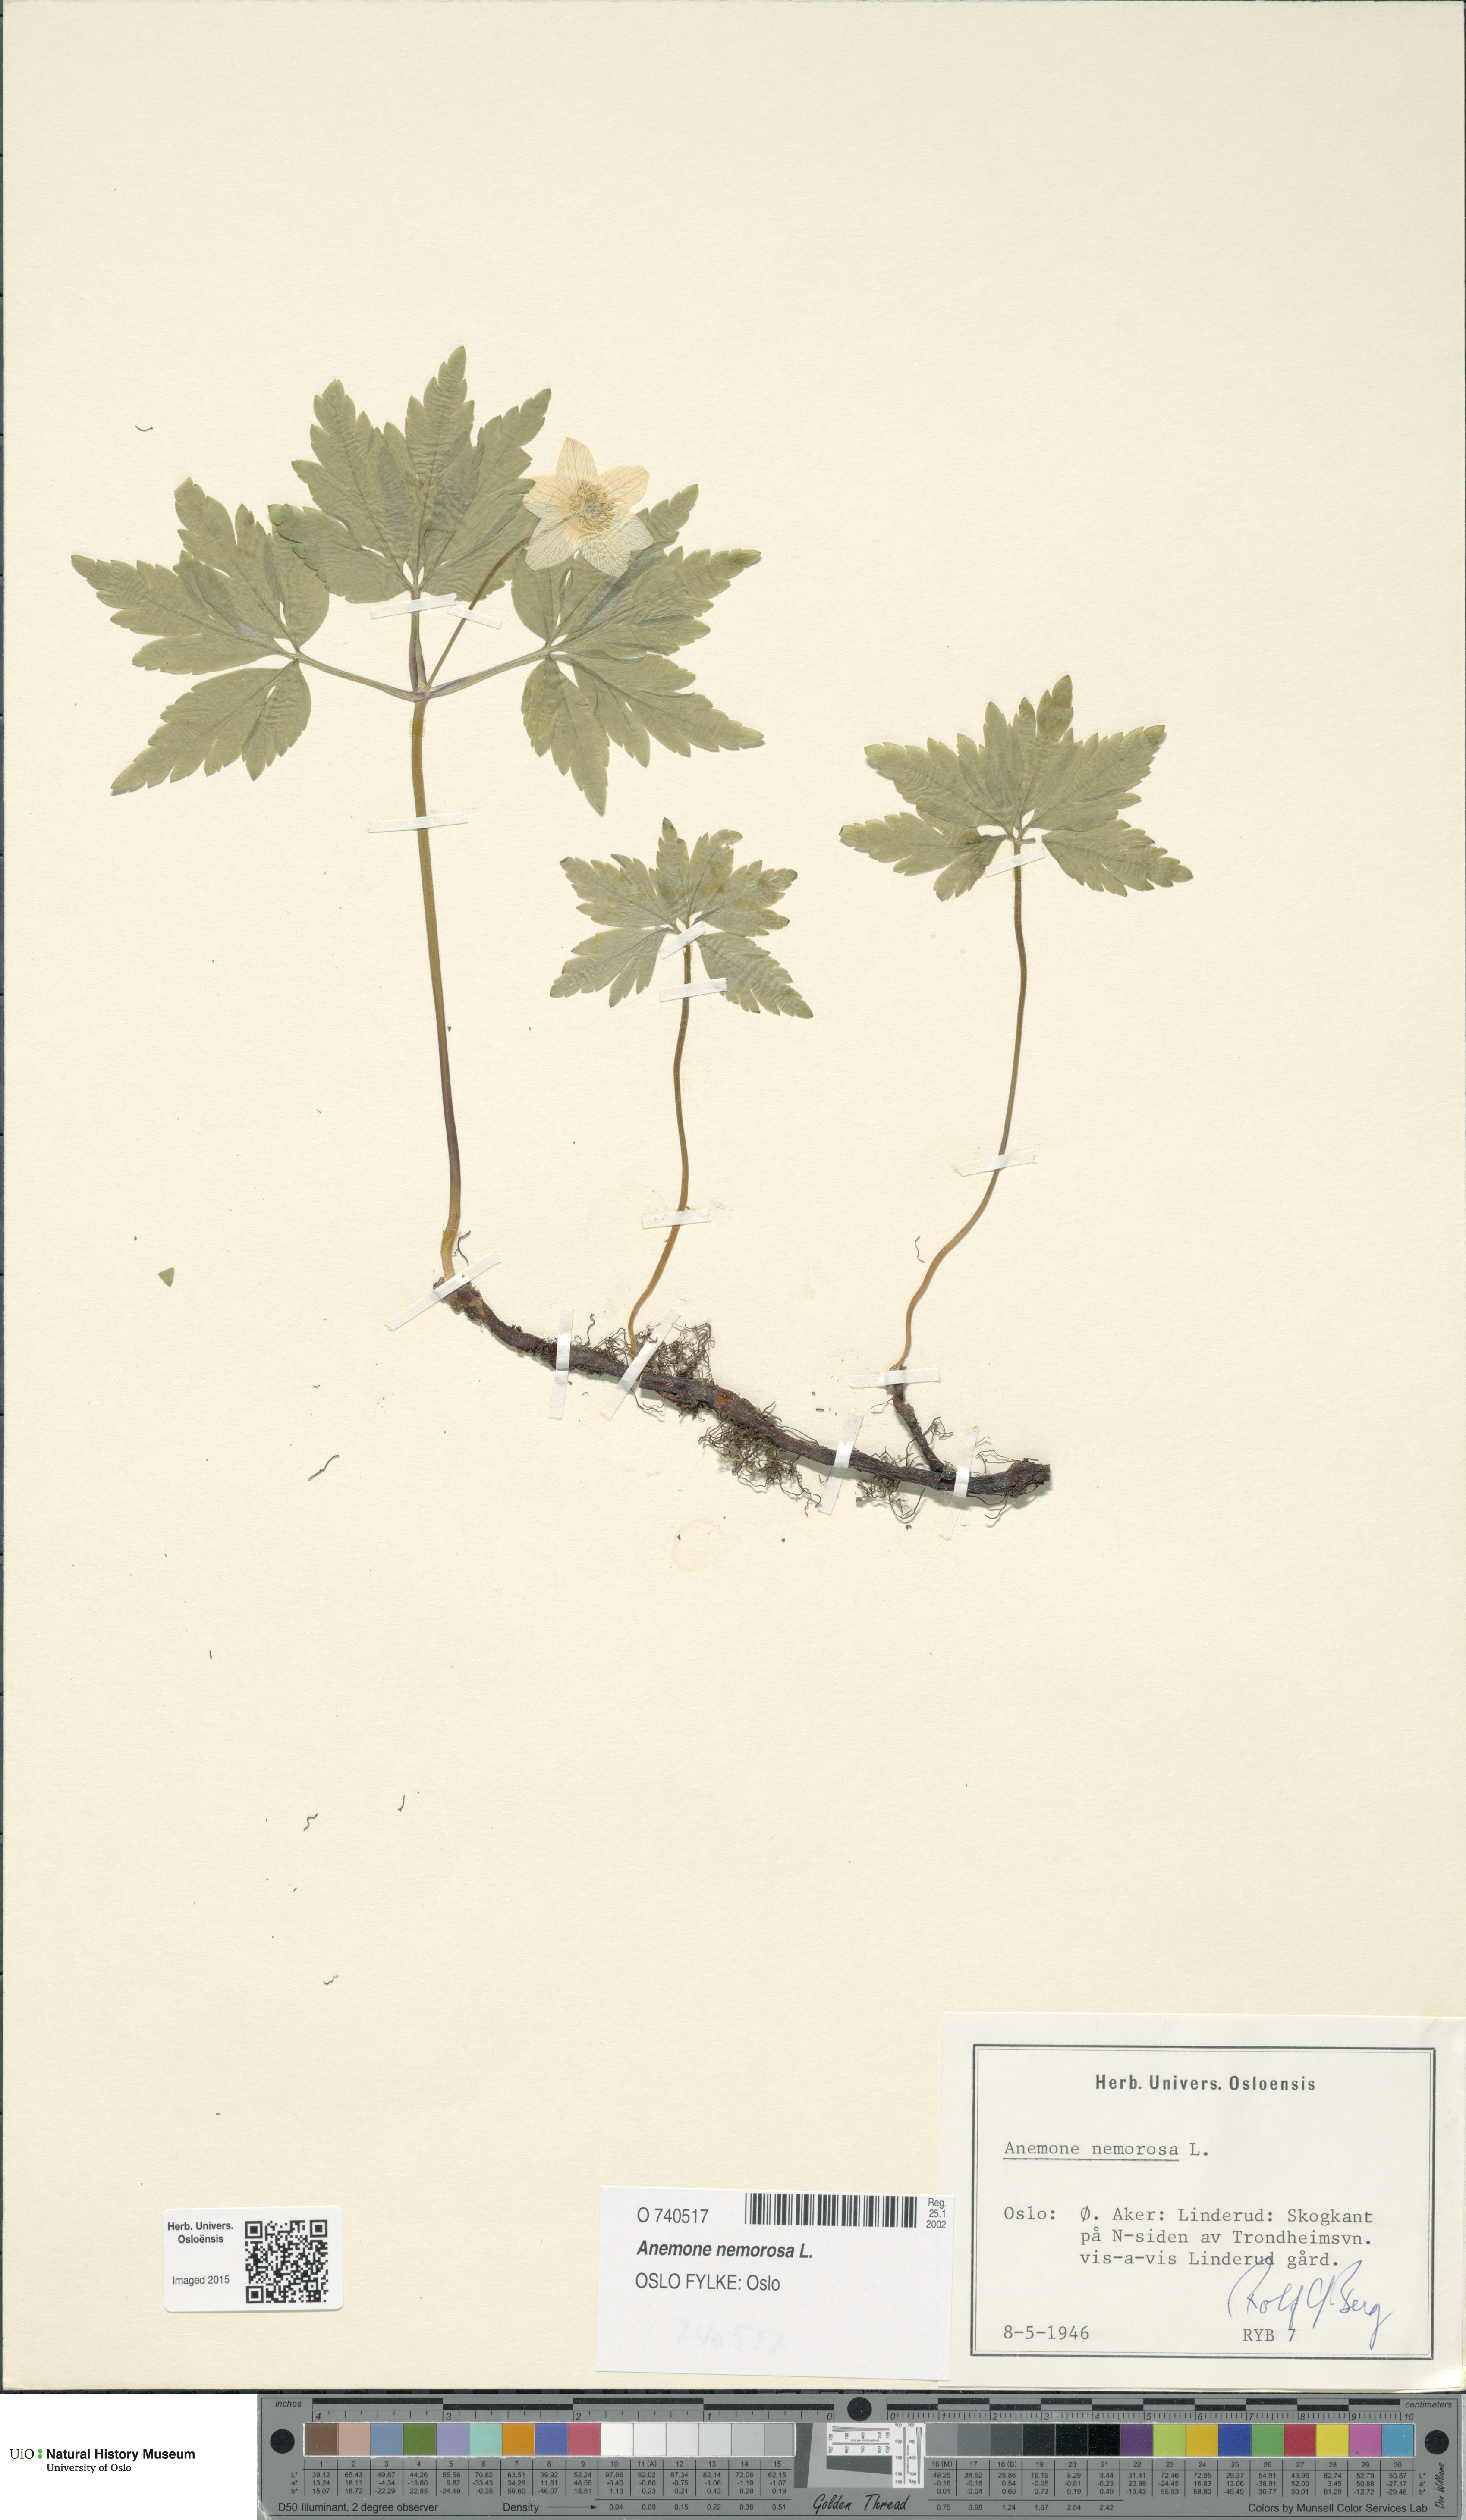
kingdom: Plantae
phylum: Tracheophyta
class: Magnoliopsida
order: Ranunculales
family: Ranunculaceae
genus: Anemone
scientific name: Anemone nemorosa
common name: Wood anemone
